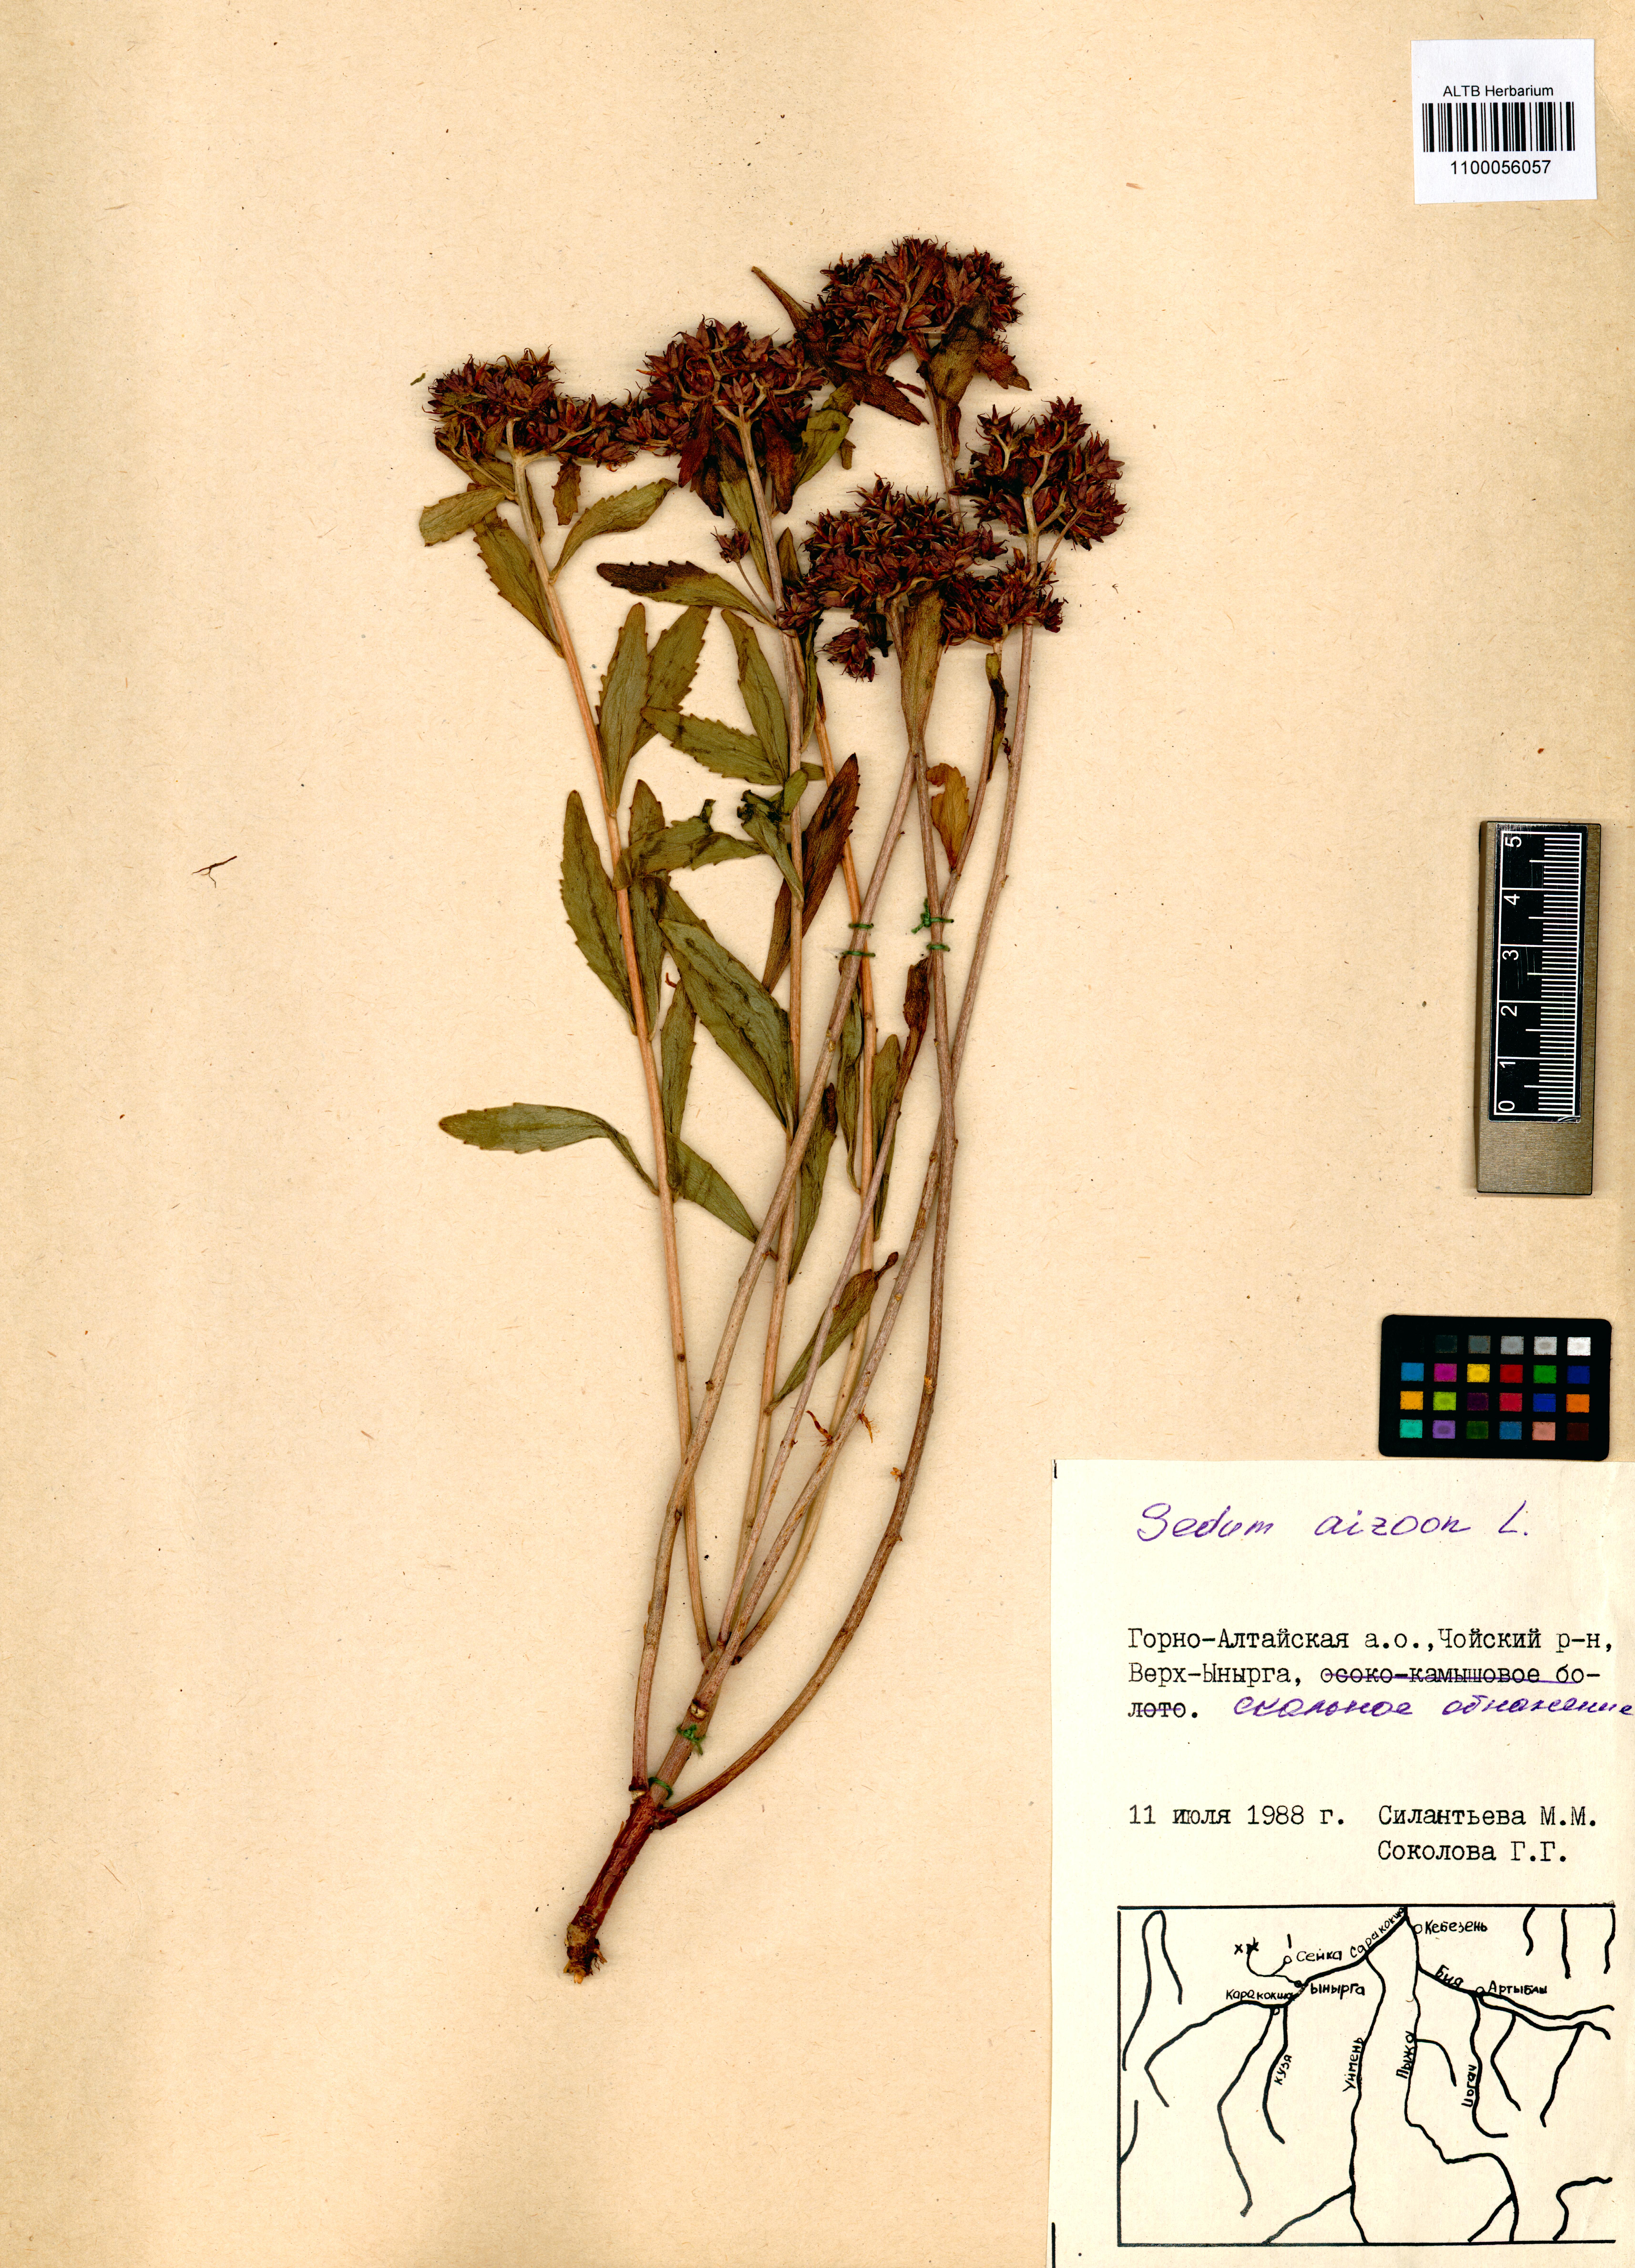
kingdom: Plantae
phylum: Tracheophyta
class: Magnoliopsida
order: Saxifragales
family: Crassulaceae
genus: Phedimus
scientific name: Phedimus aizoon
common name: Orpin aizoon
